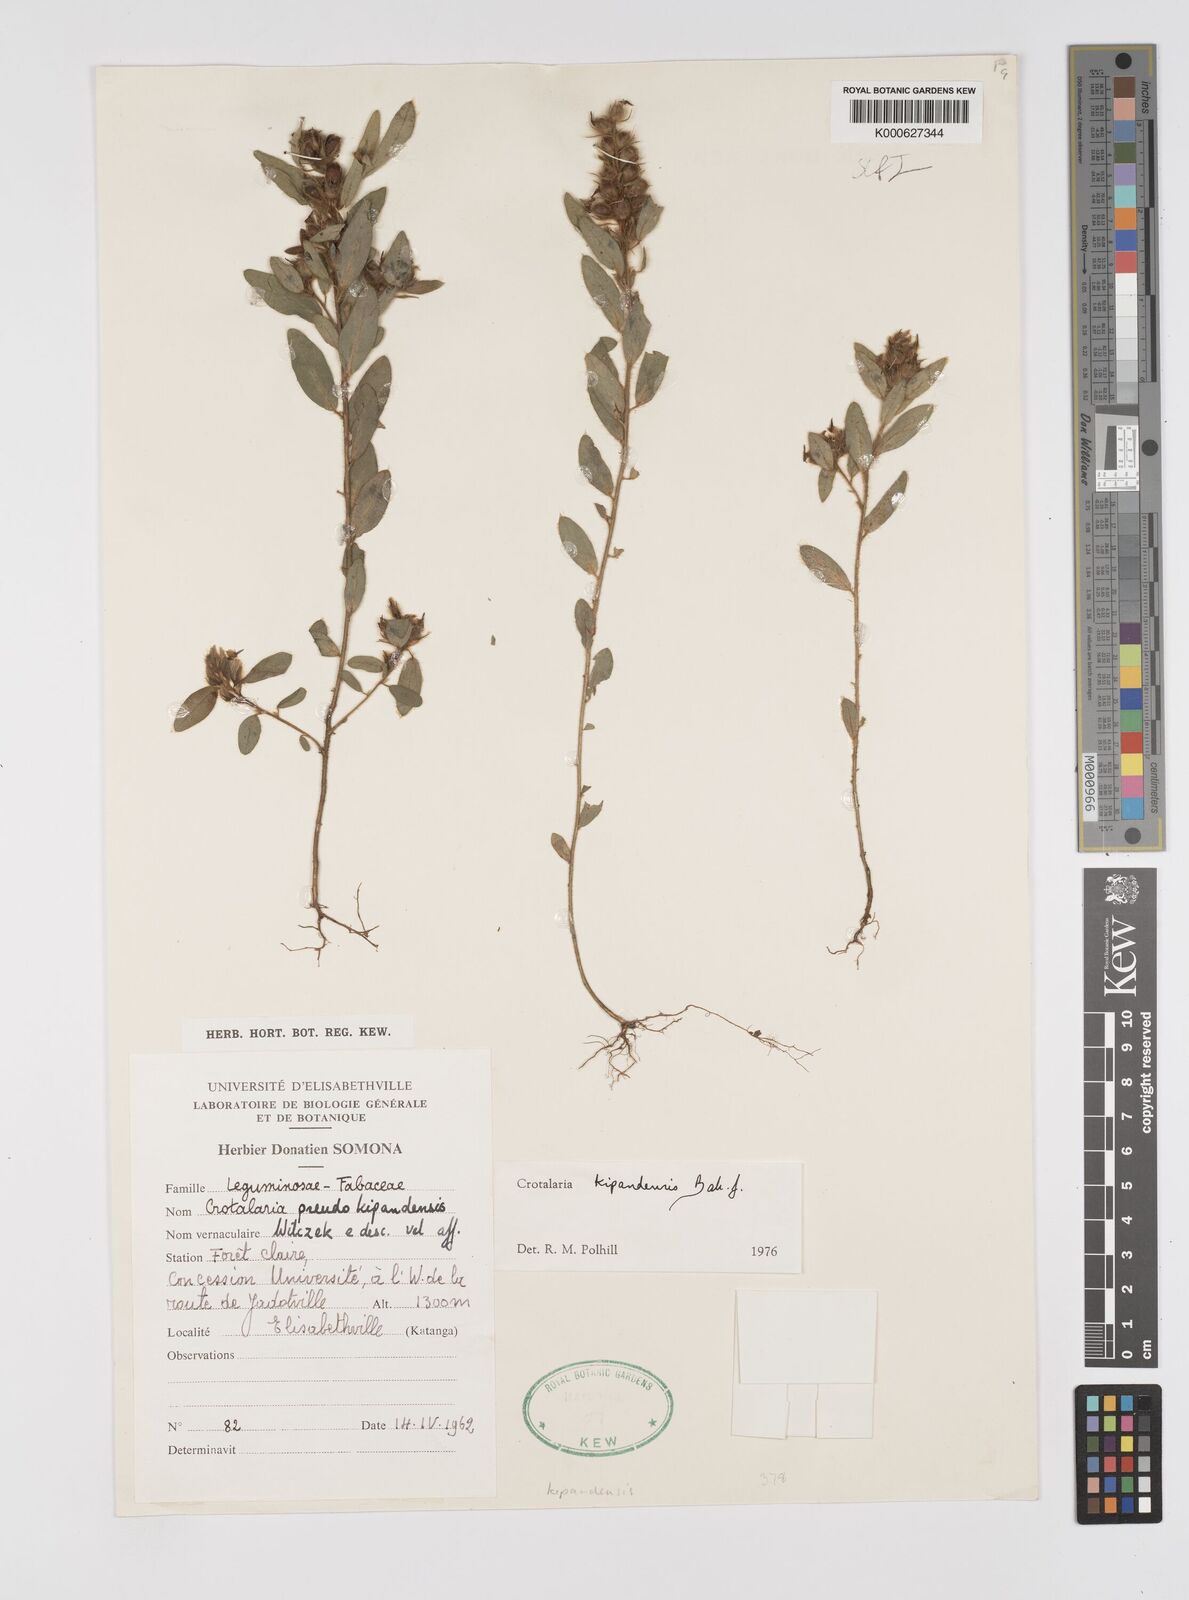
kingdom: Plantae
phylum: Tracheophyta
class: Magnoliopsida
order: Fabales
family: Fabaceae
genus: Crotalaria
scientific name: Crotalaria kipandensis
